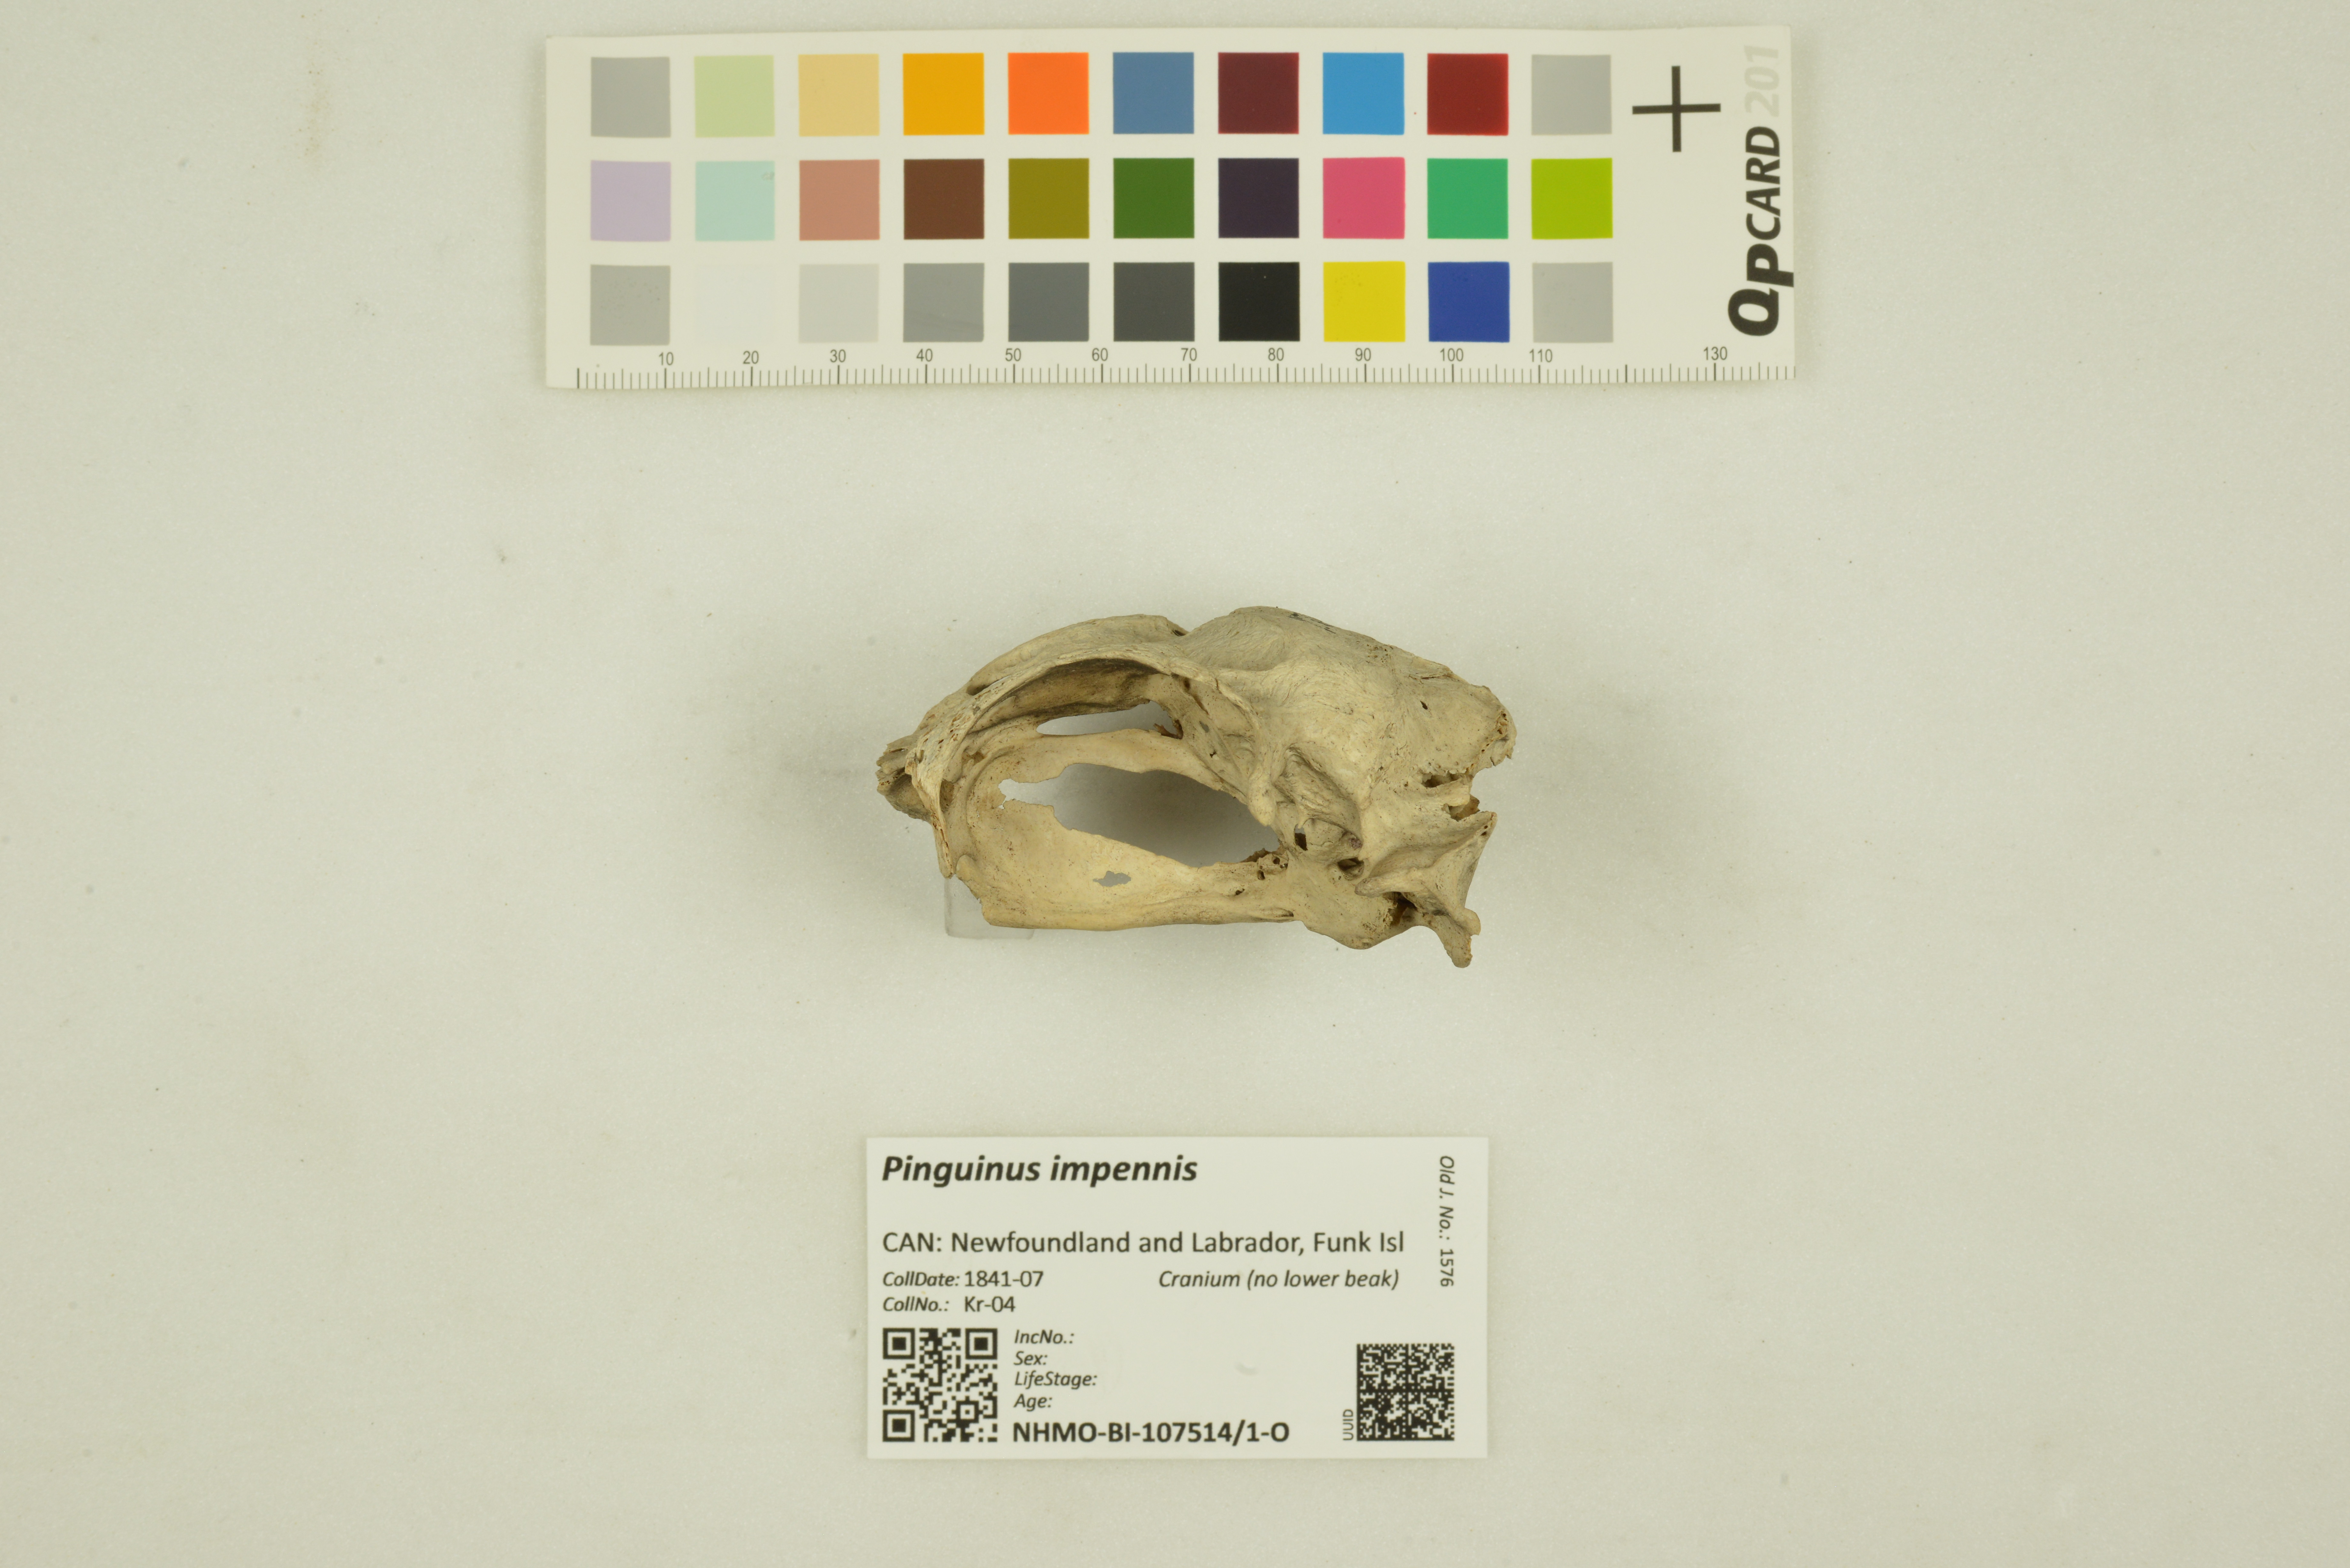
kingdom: Animalia
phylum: Chordata
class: Aves
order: Charadriiformes
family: Alcidae
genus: Pinguinus
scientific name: Pinguinus impennis
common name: Great auk
